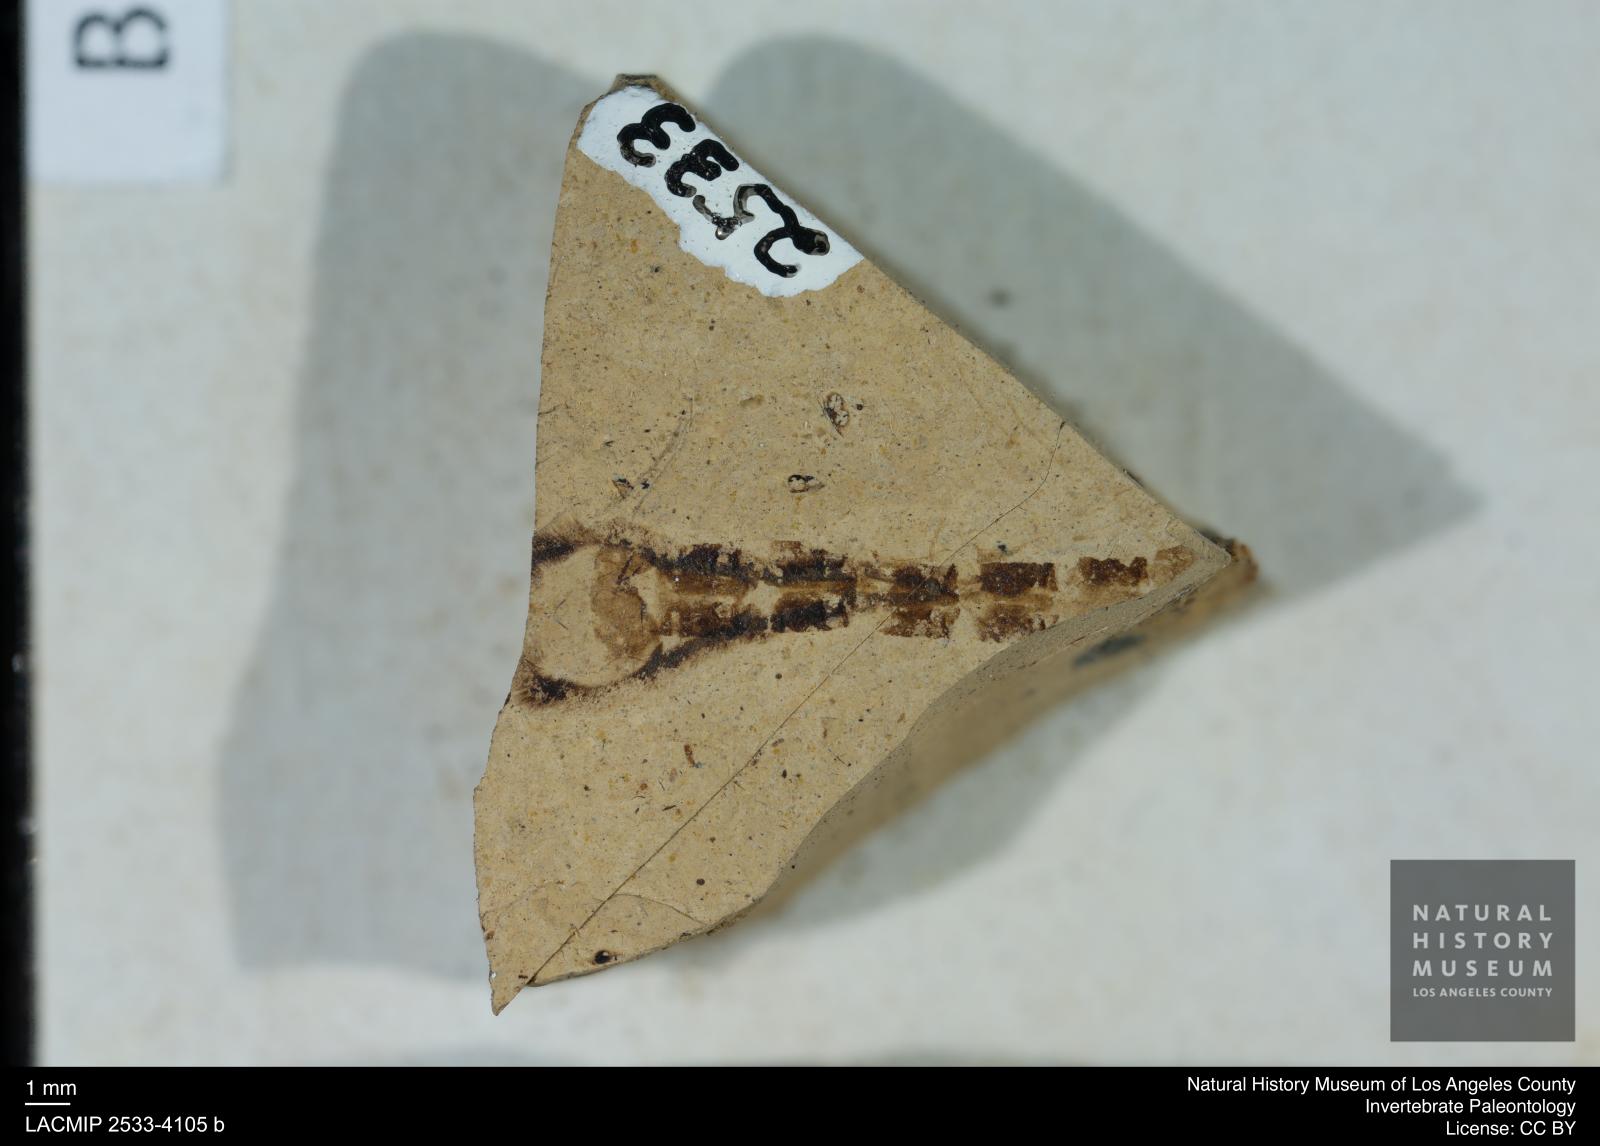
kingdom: Animalia
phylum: Arthropoda
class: Insecta
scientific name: Insecta
